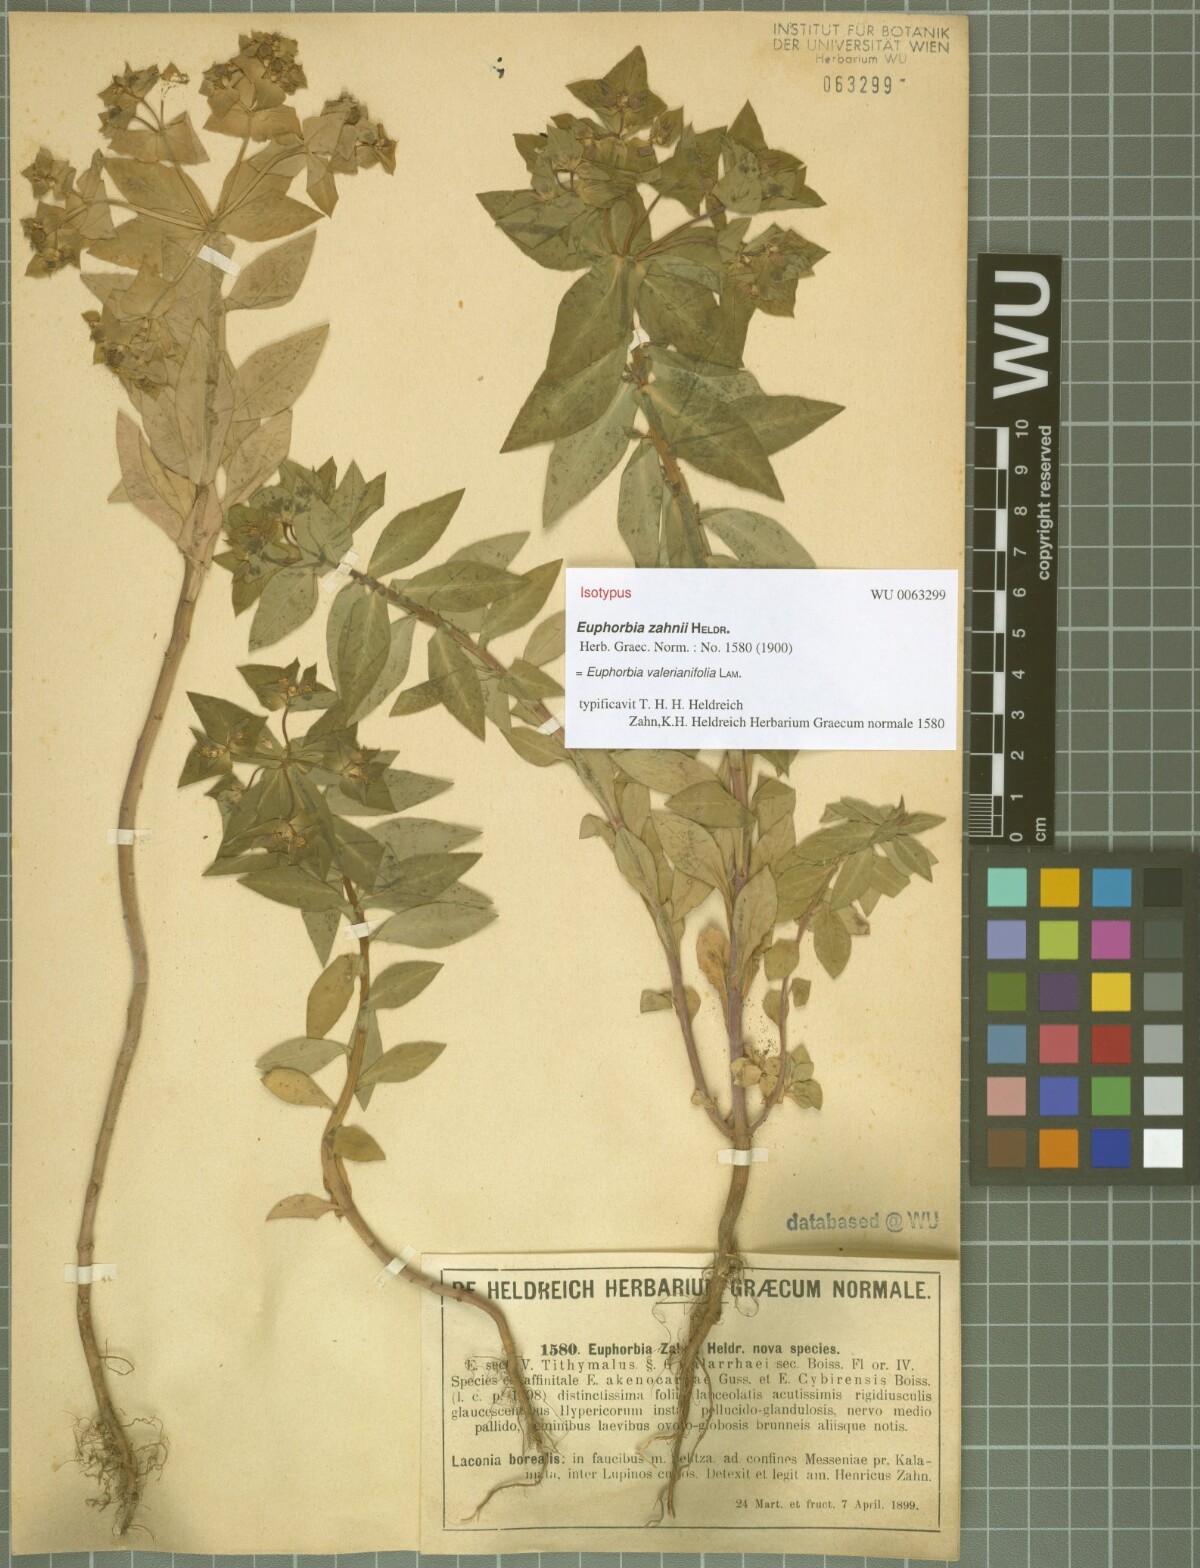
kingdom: Plantae
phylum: Tracheophyta
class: Magnoliopsida
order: Malpighiales
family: Euphorbiaceae
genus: Euphorbia
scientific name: Euphorbia valerianifolia
